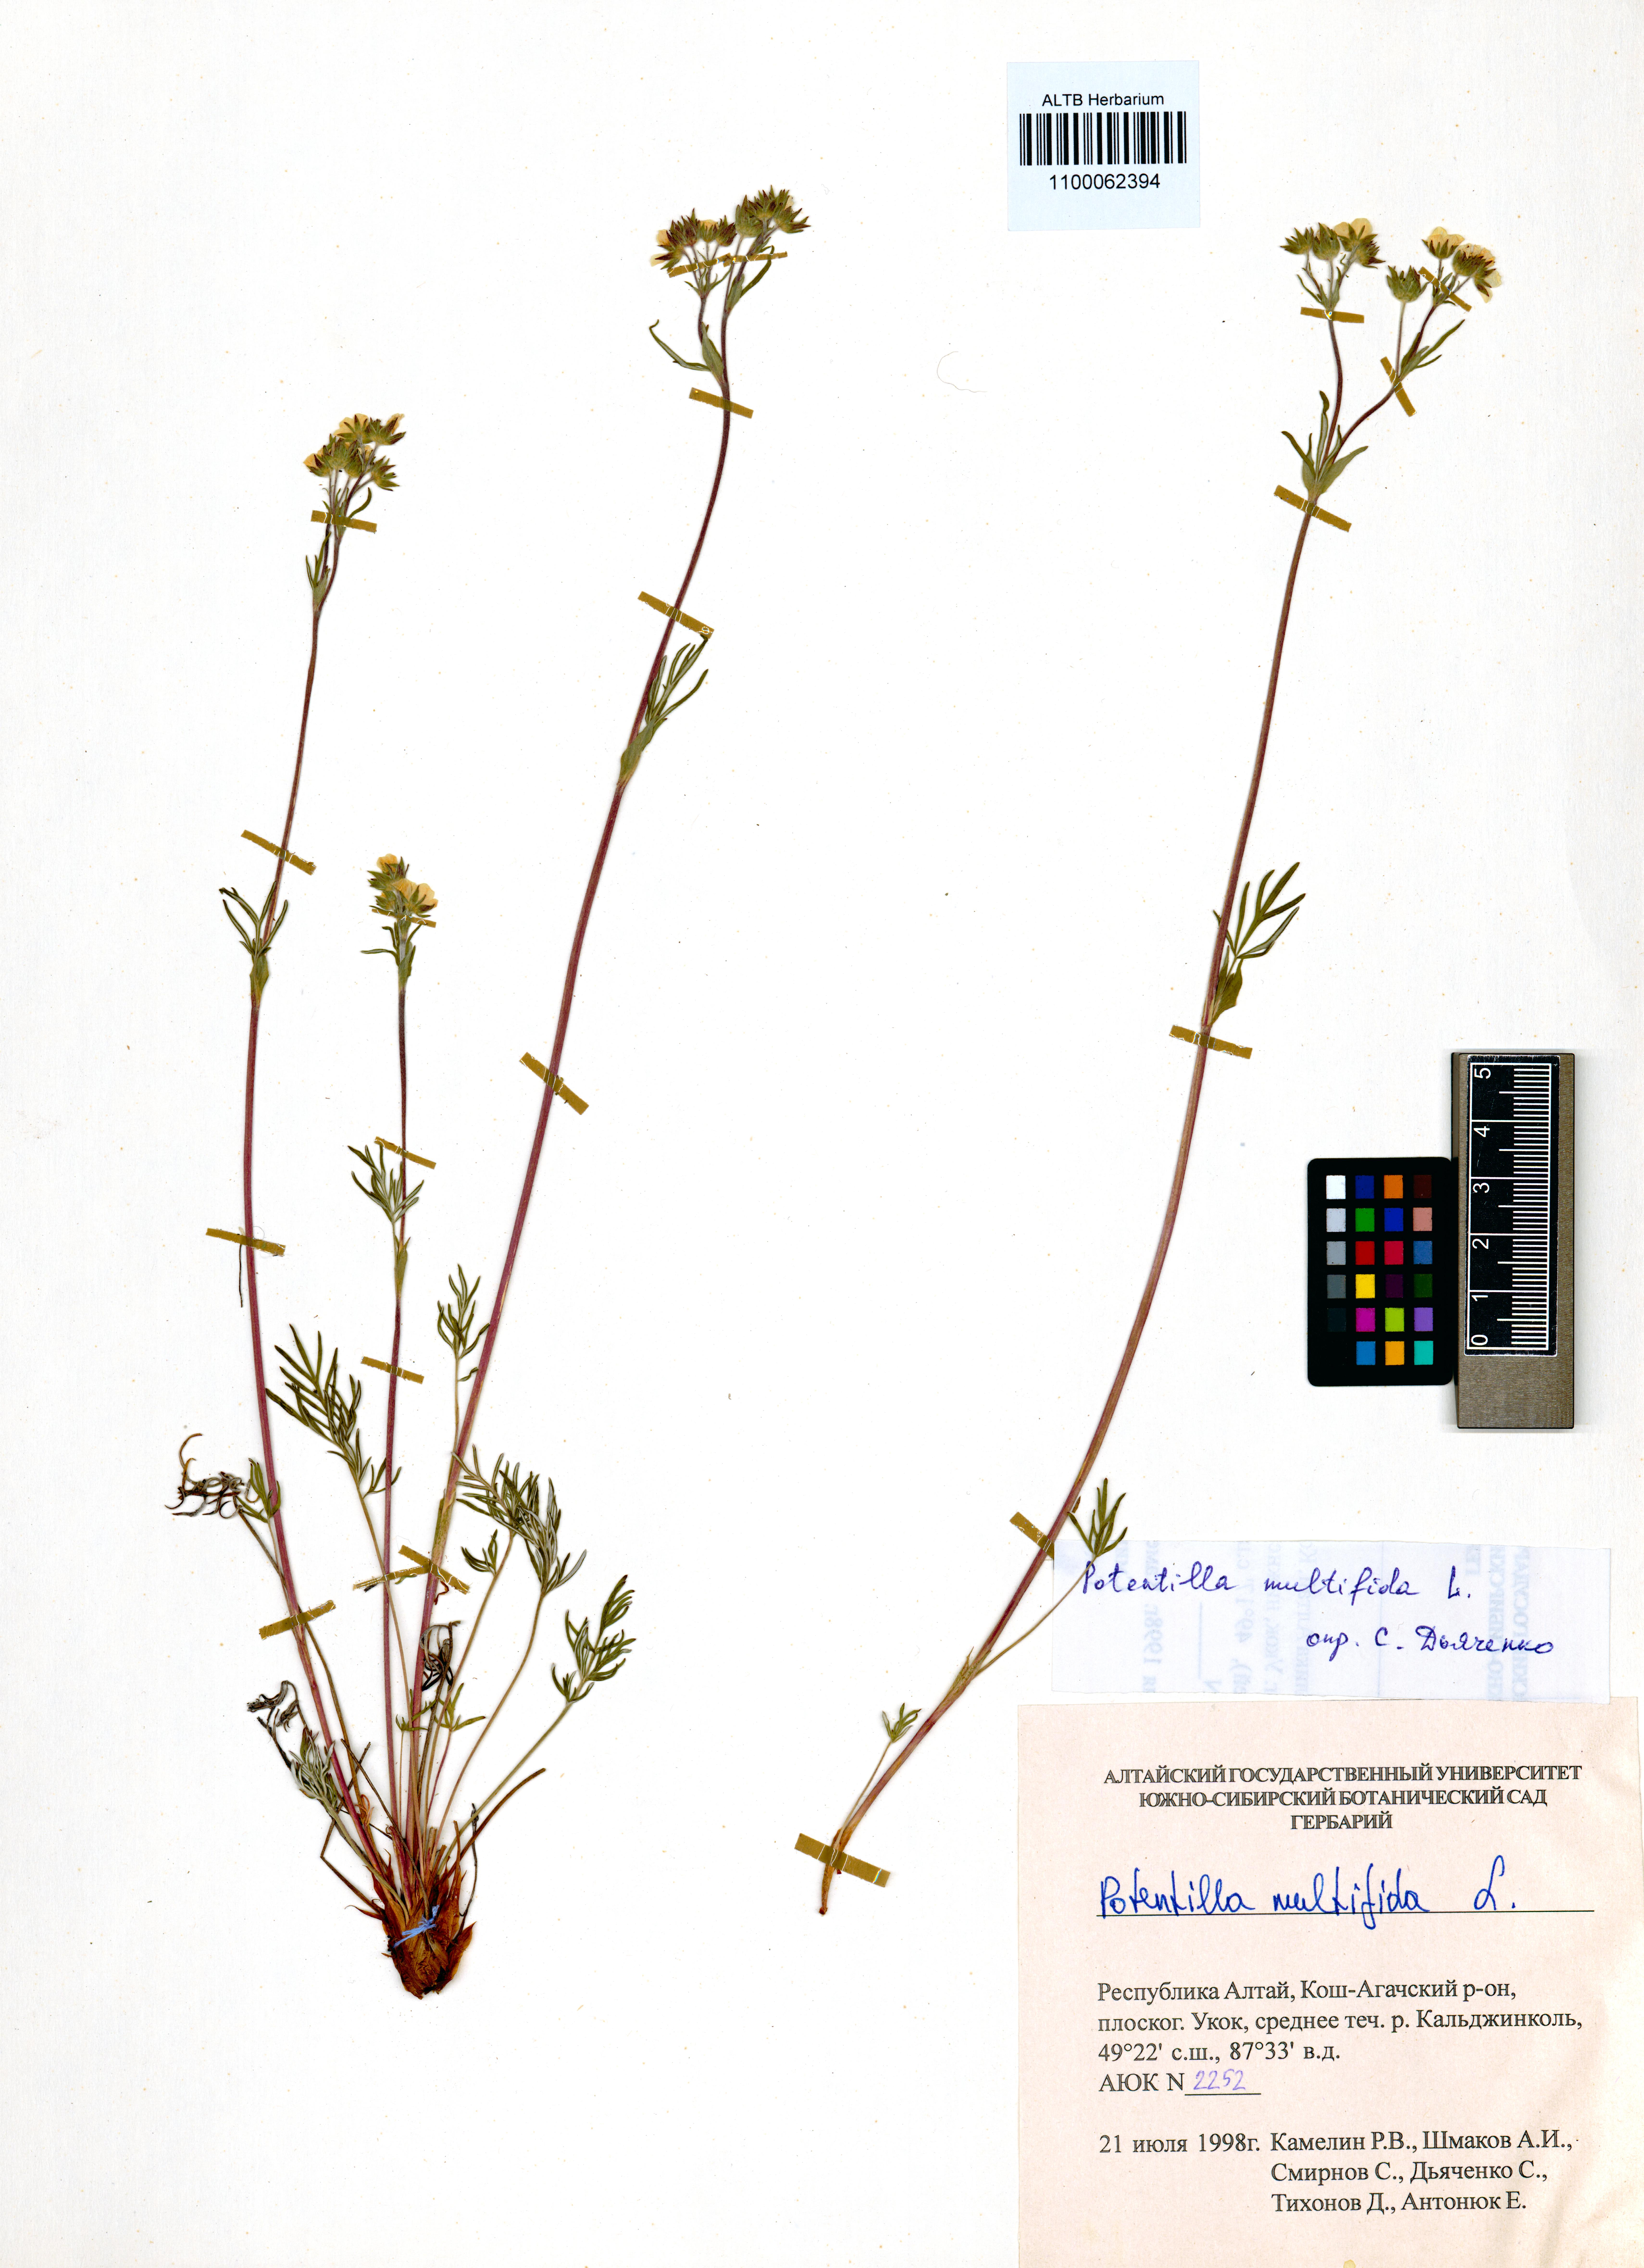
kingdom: Plantae
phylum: Tracheophyta
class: Magnoliopsida
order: Rosales
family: Rosaceae
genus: Potentilla
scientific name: Potentilla multifida
